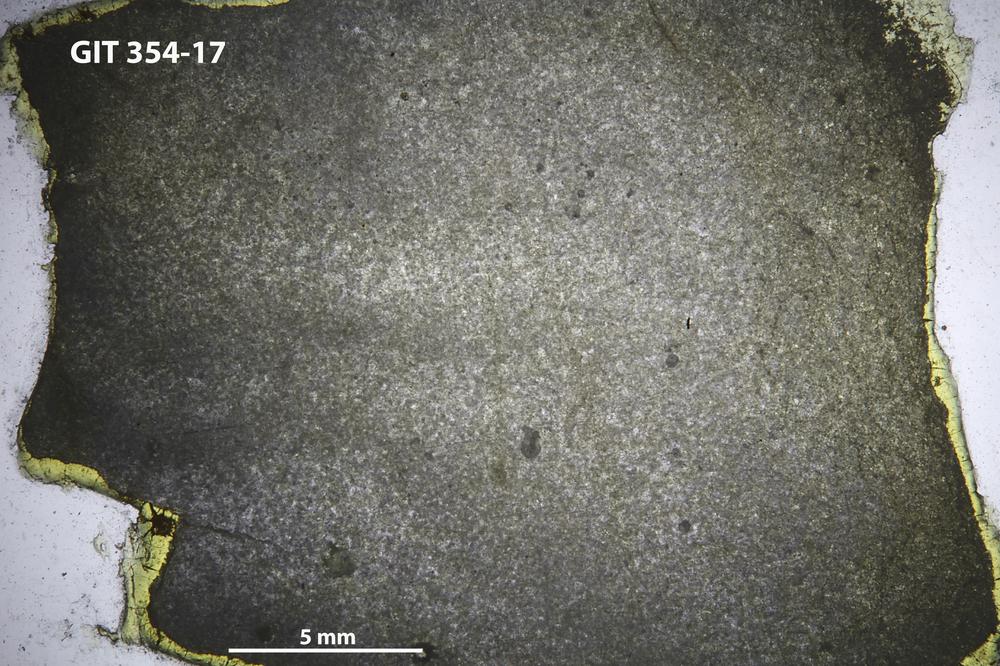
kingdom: Animalia
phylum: Porifera
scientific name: Porifera
